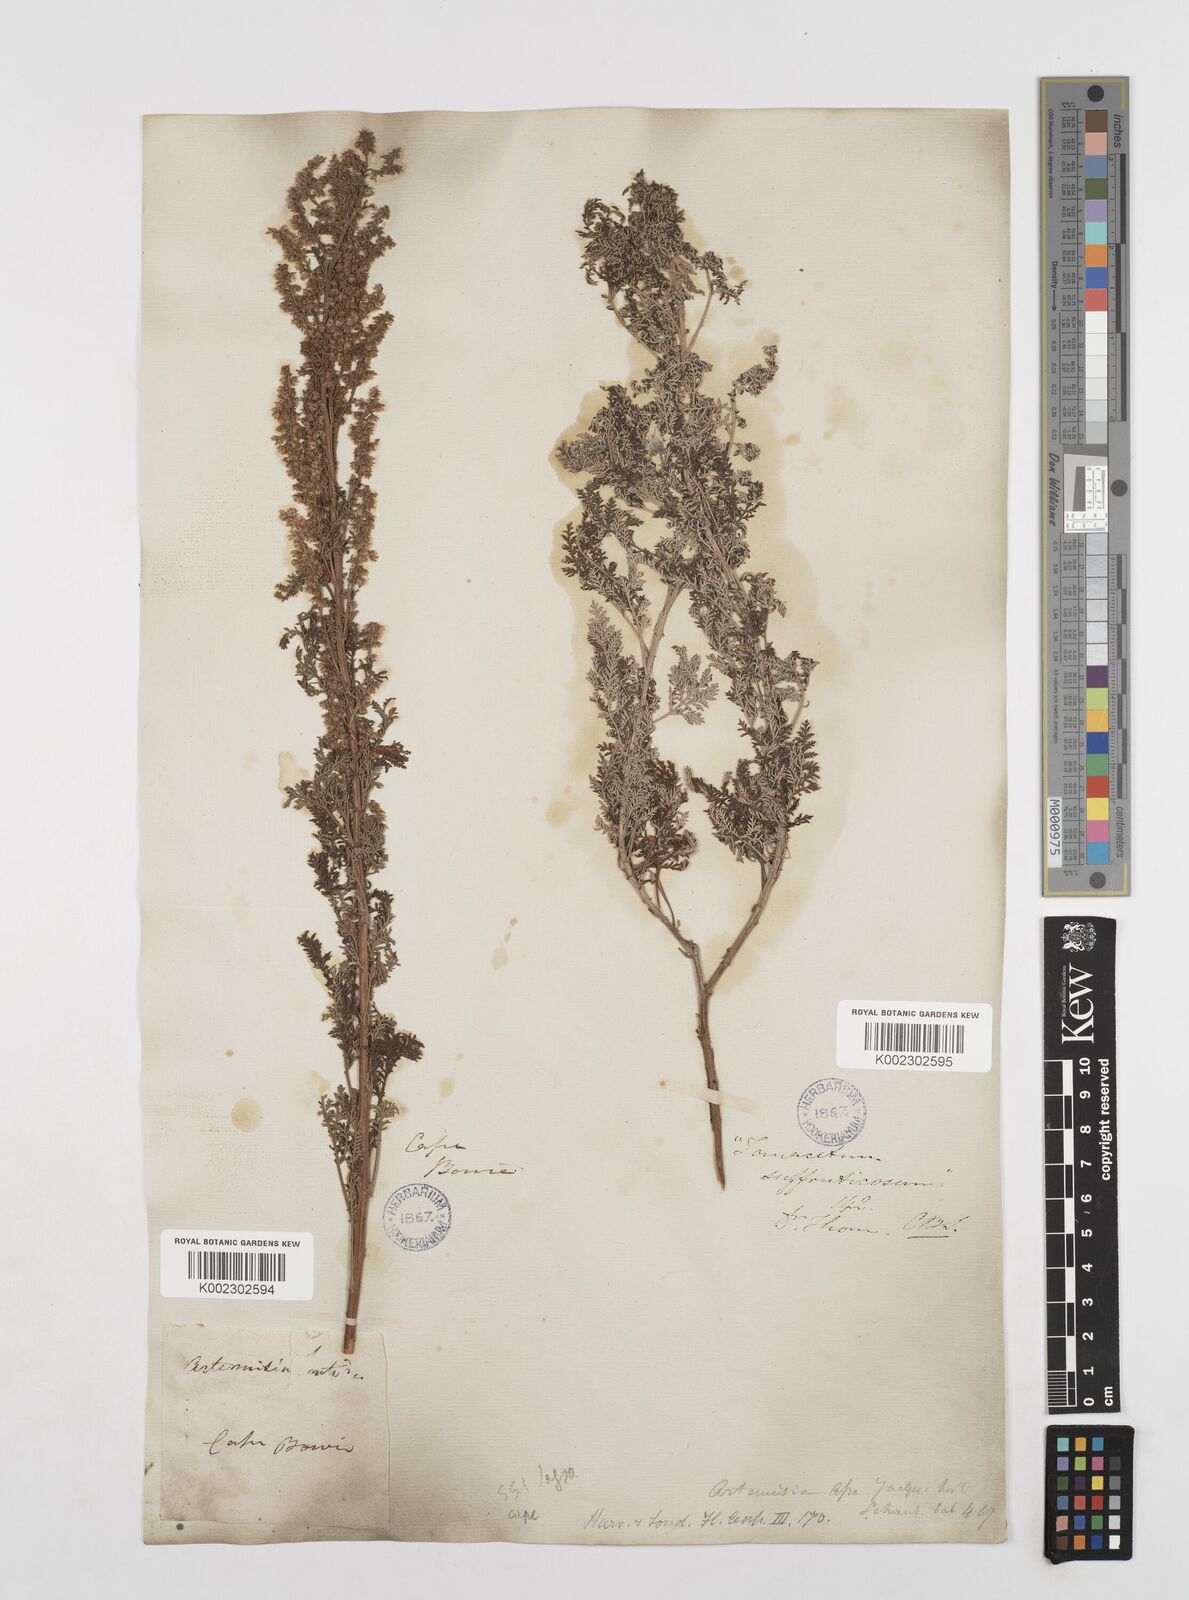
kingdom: Plantae
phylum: Tracheophyta
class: Magnoliopsida
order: Asterales
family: Asteraceae
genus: Artemisia
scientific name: Artemisia afra
